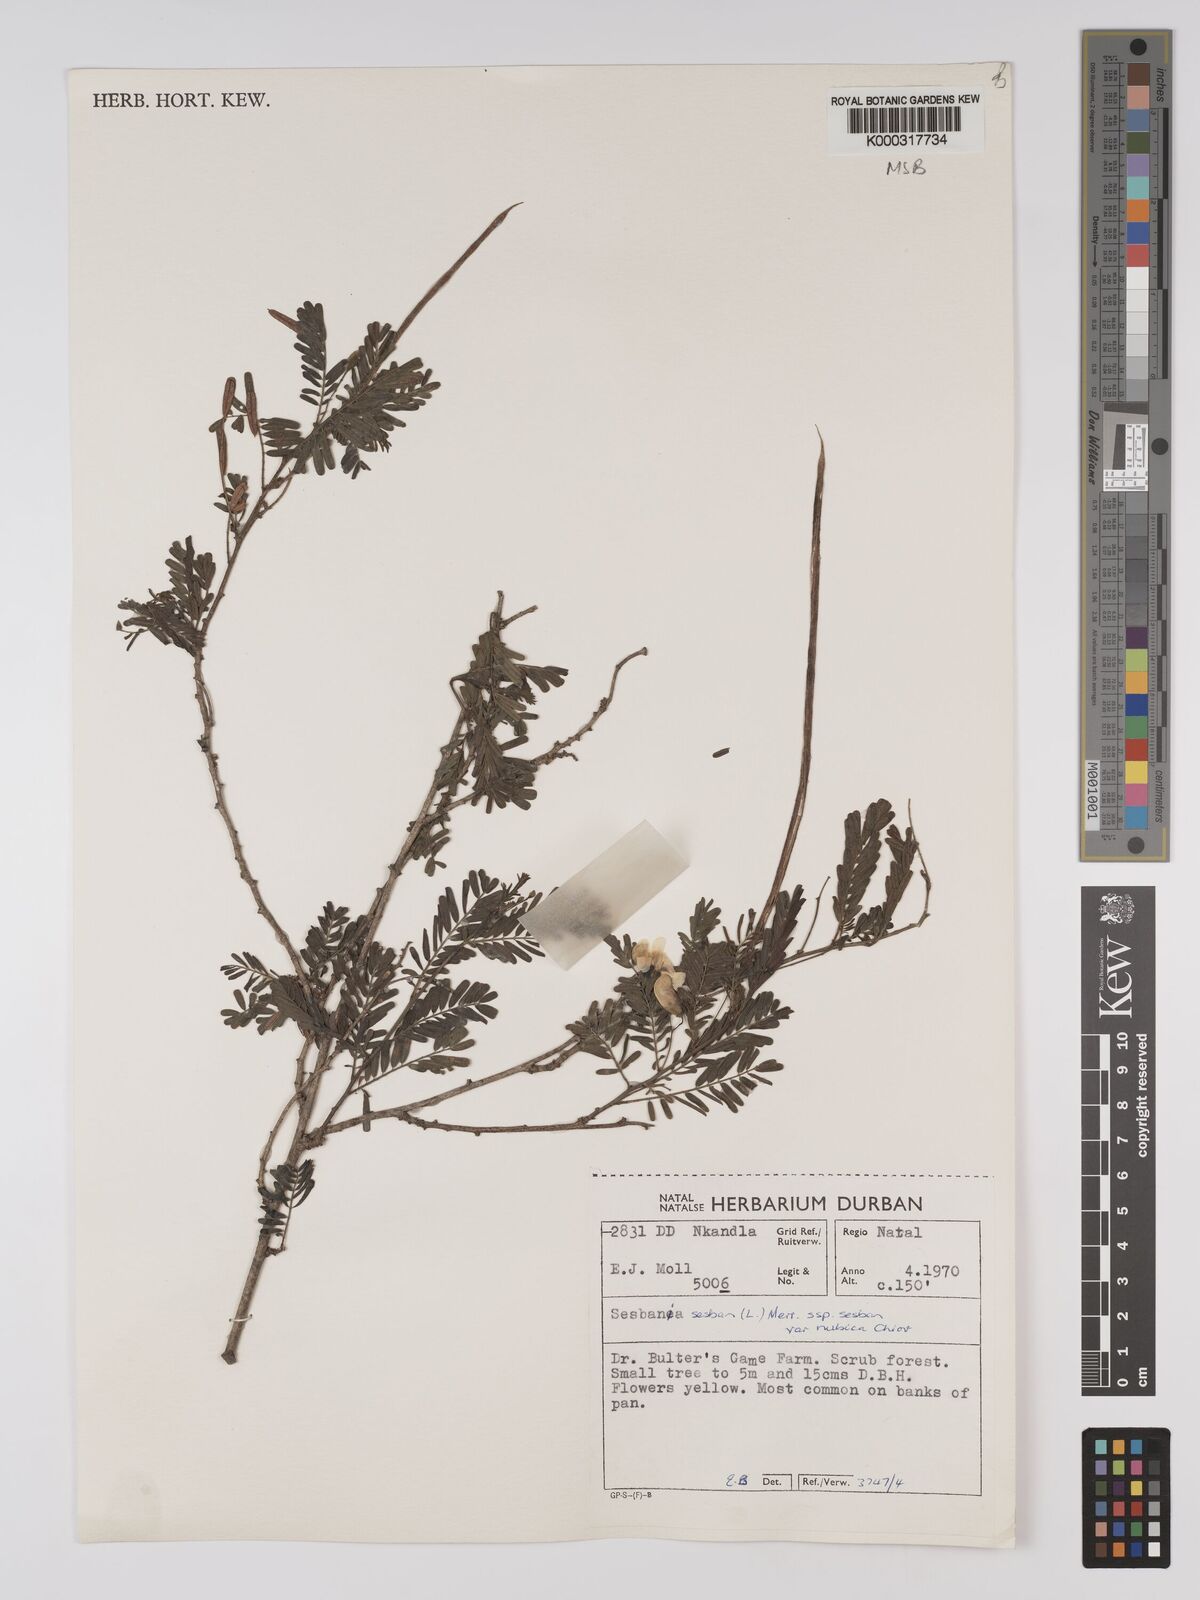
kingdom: Plantae
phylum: Tracheophyta
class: Magnoliopsida
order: Fabales
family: Fabaceae
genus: Sesbania
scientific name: Sesbania sesban
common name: Egyptian sesban
